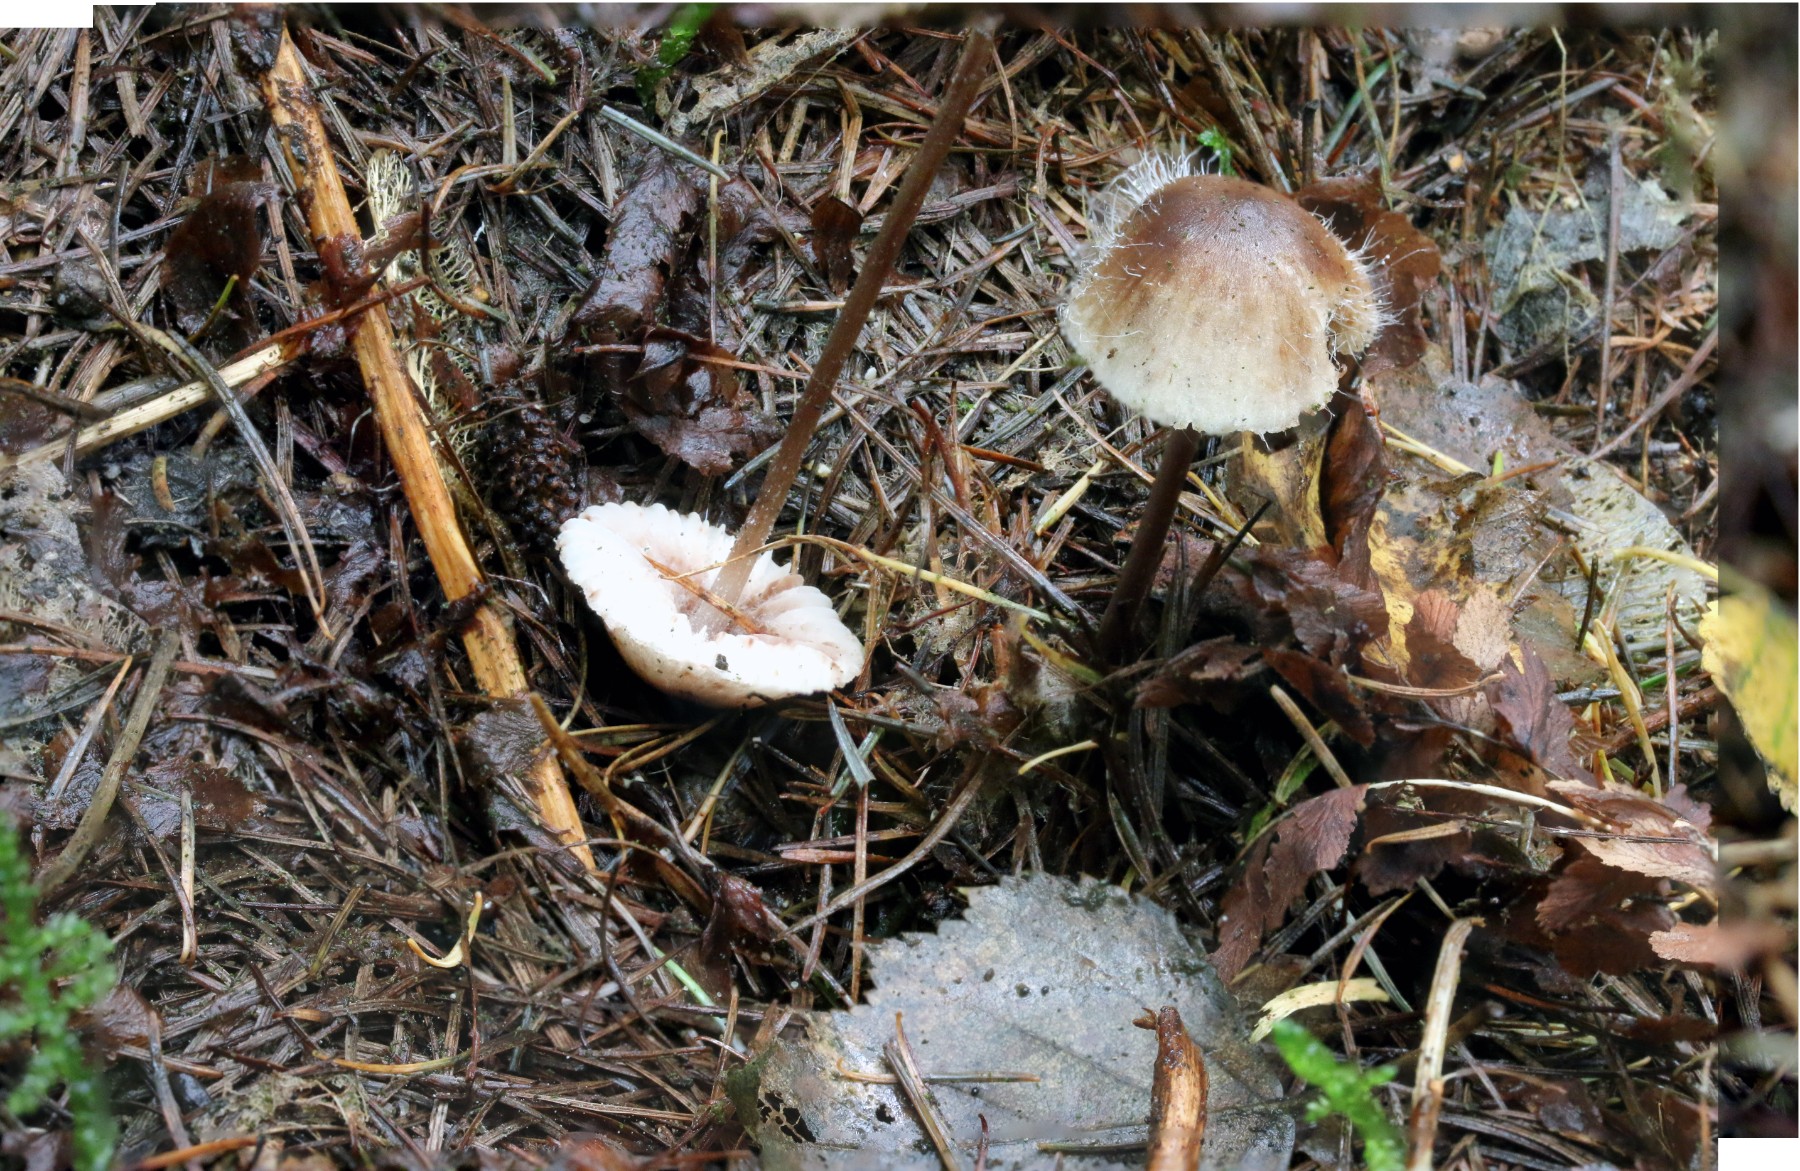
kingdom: Fungi
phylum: Basidiomycota
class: Agaricomycetes
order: Agaricales
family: Mycenaceae
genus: Mycena
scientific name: Mycena zephirus
